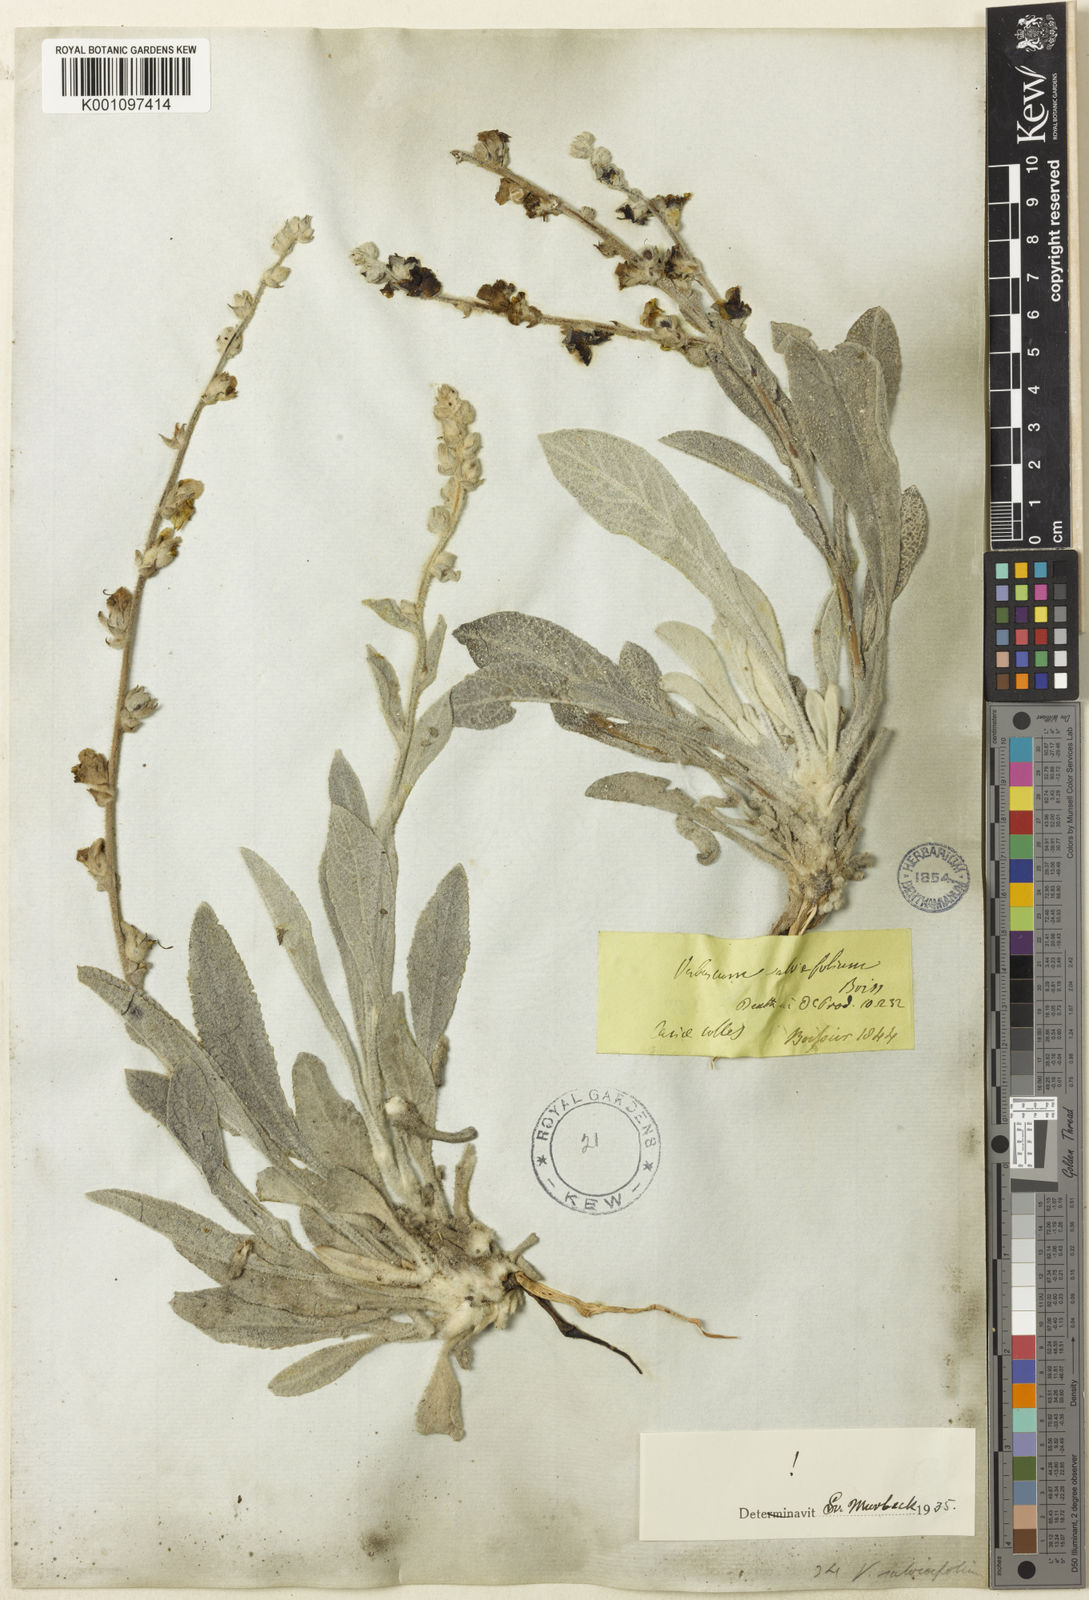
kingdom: Plantae
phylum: Tracheophyta
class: Magnoliopsida
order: Lamiales
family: Scrophulariaceae
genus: Verbascum
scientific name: Verbascum salviifolium
